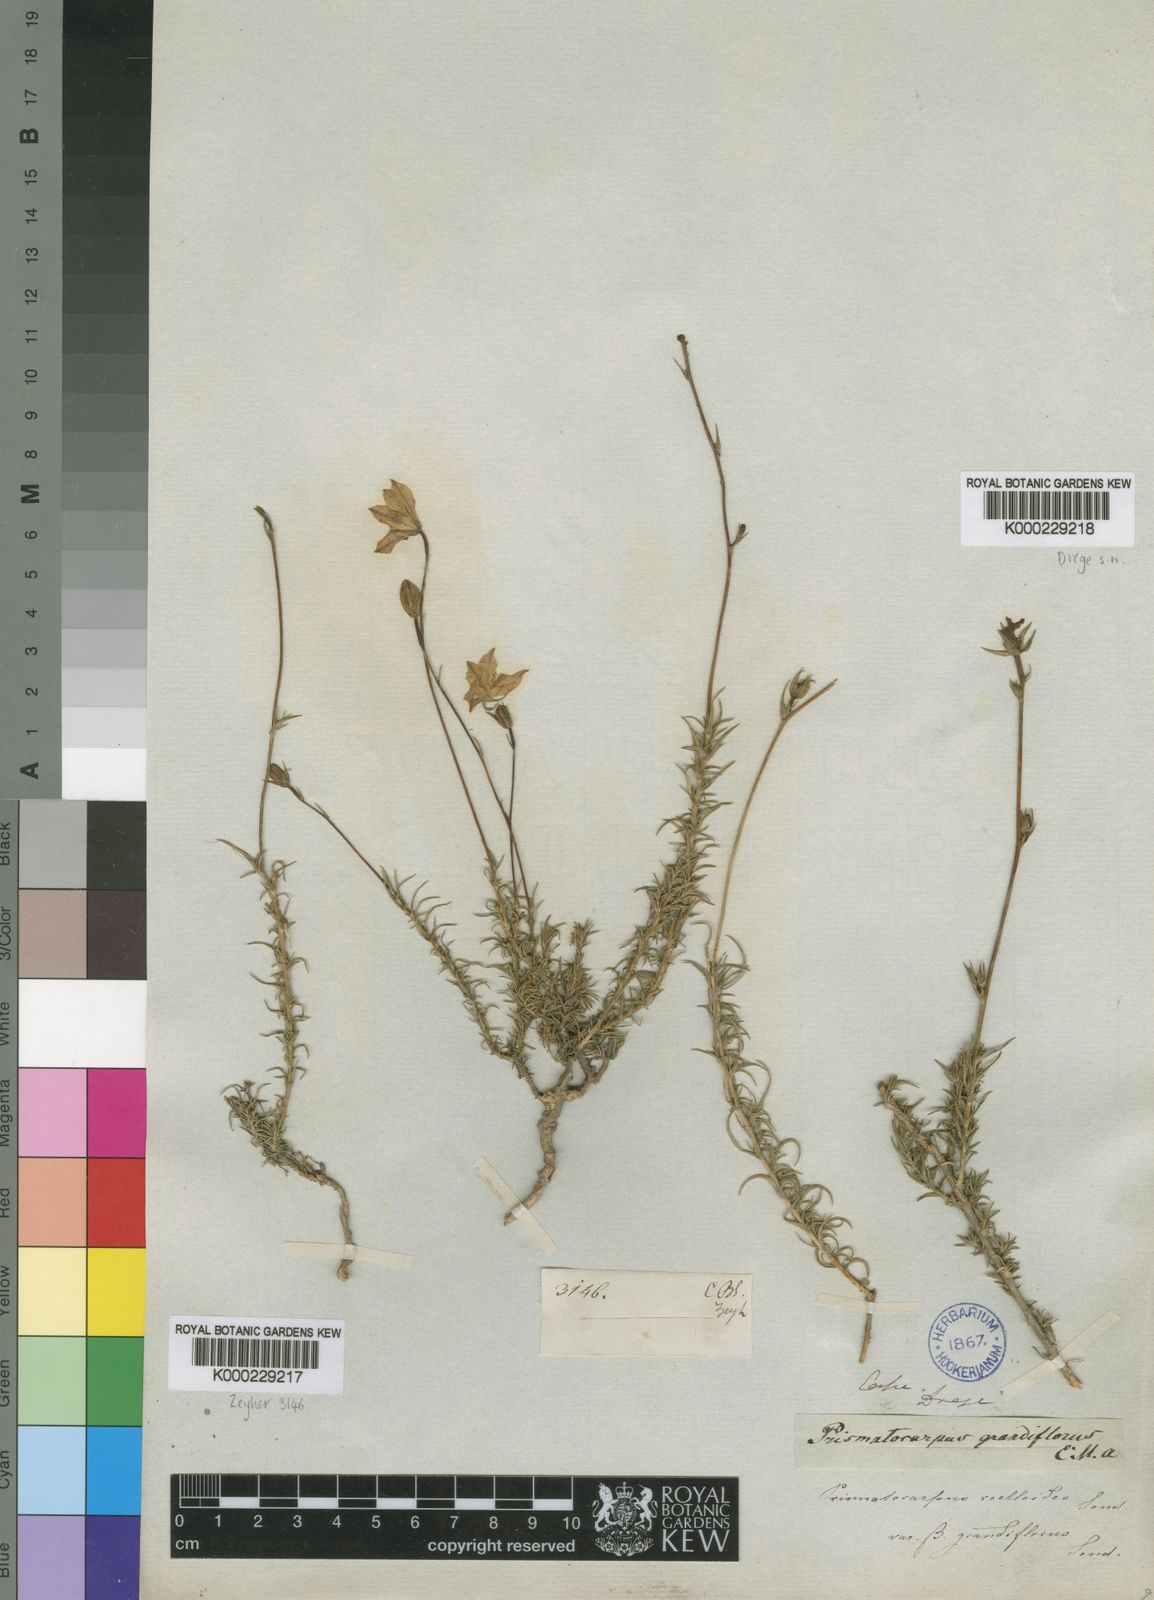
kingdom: Plantae
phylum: Tracheophyta
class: Magnoliopsida
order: Asterales
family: Campanulaceae
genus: Prismatocarpus
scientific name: Prismatocarpus pedunculatus
